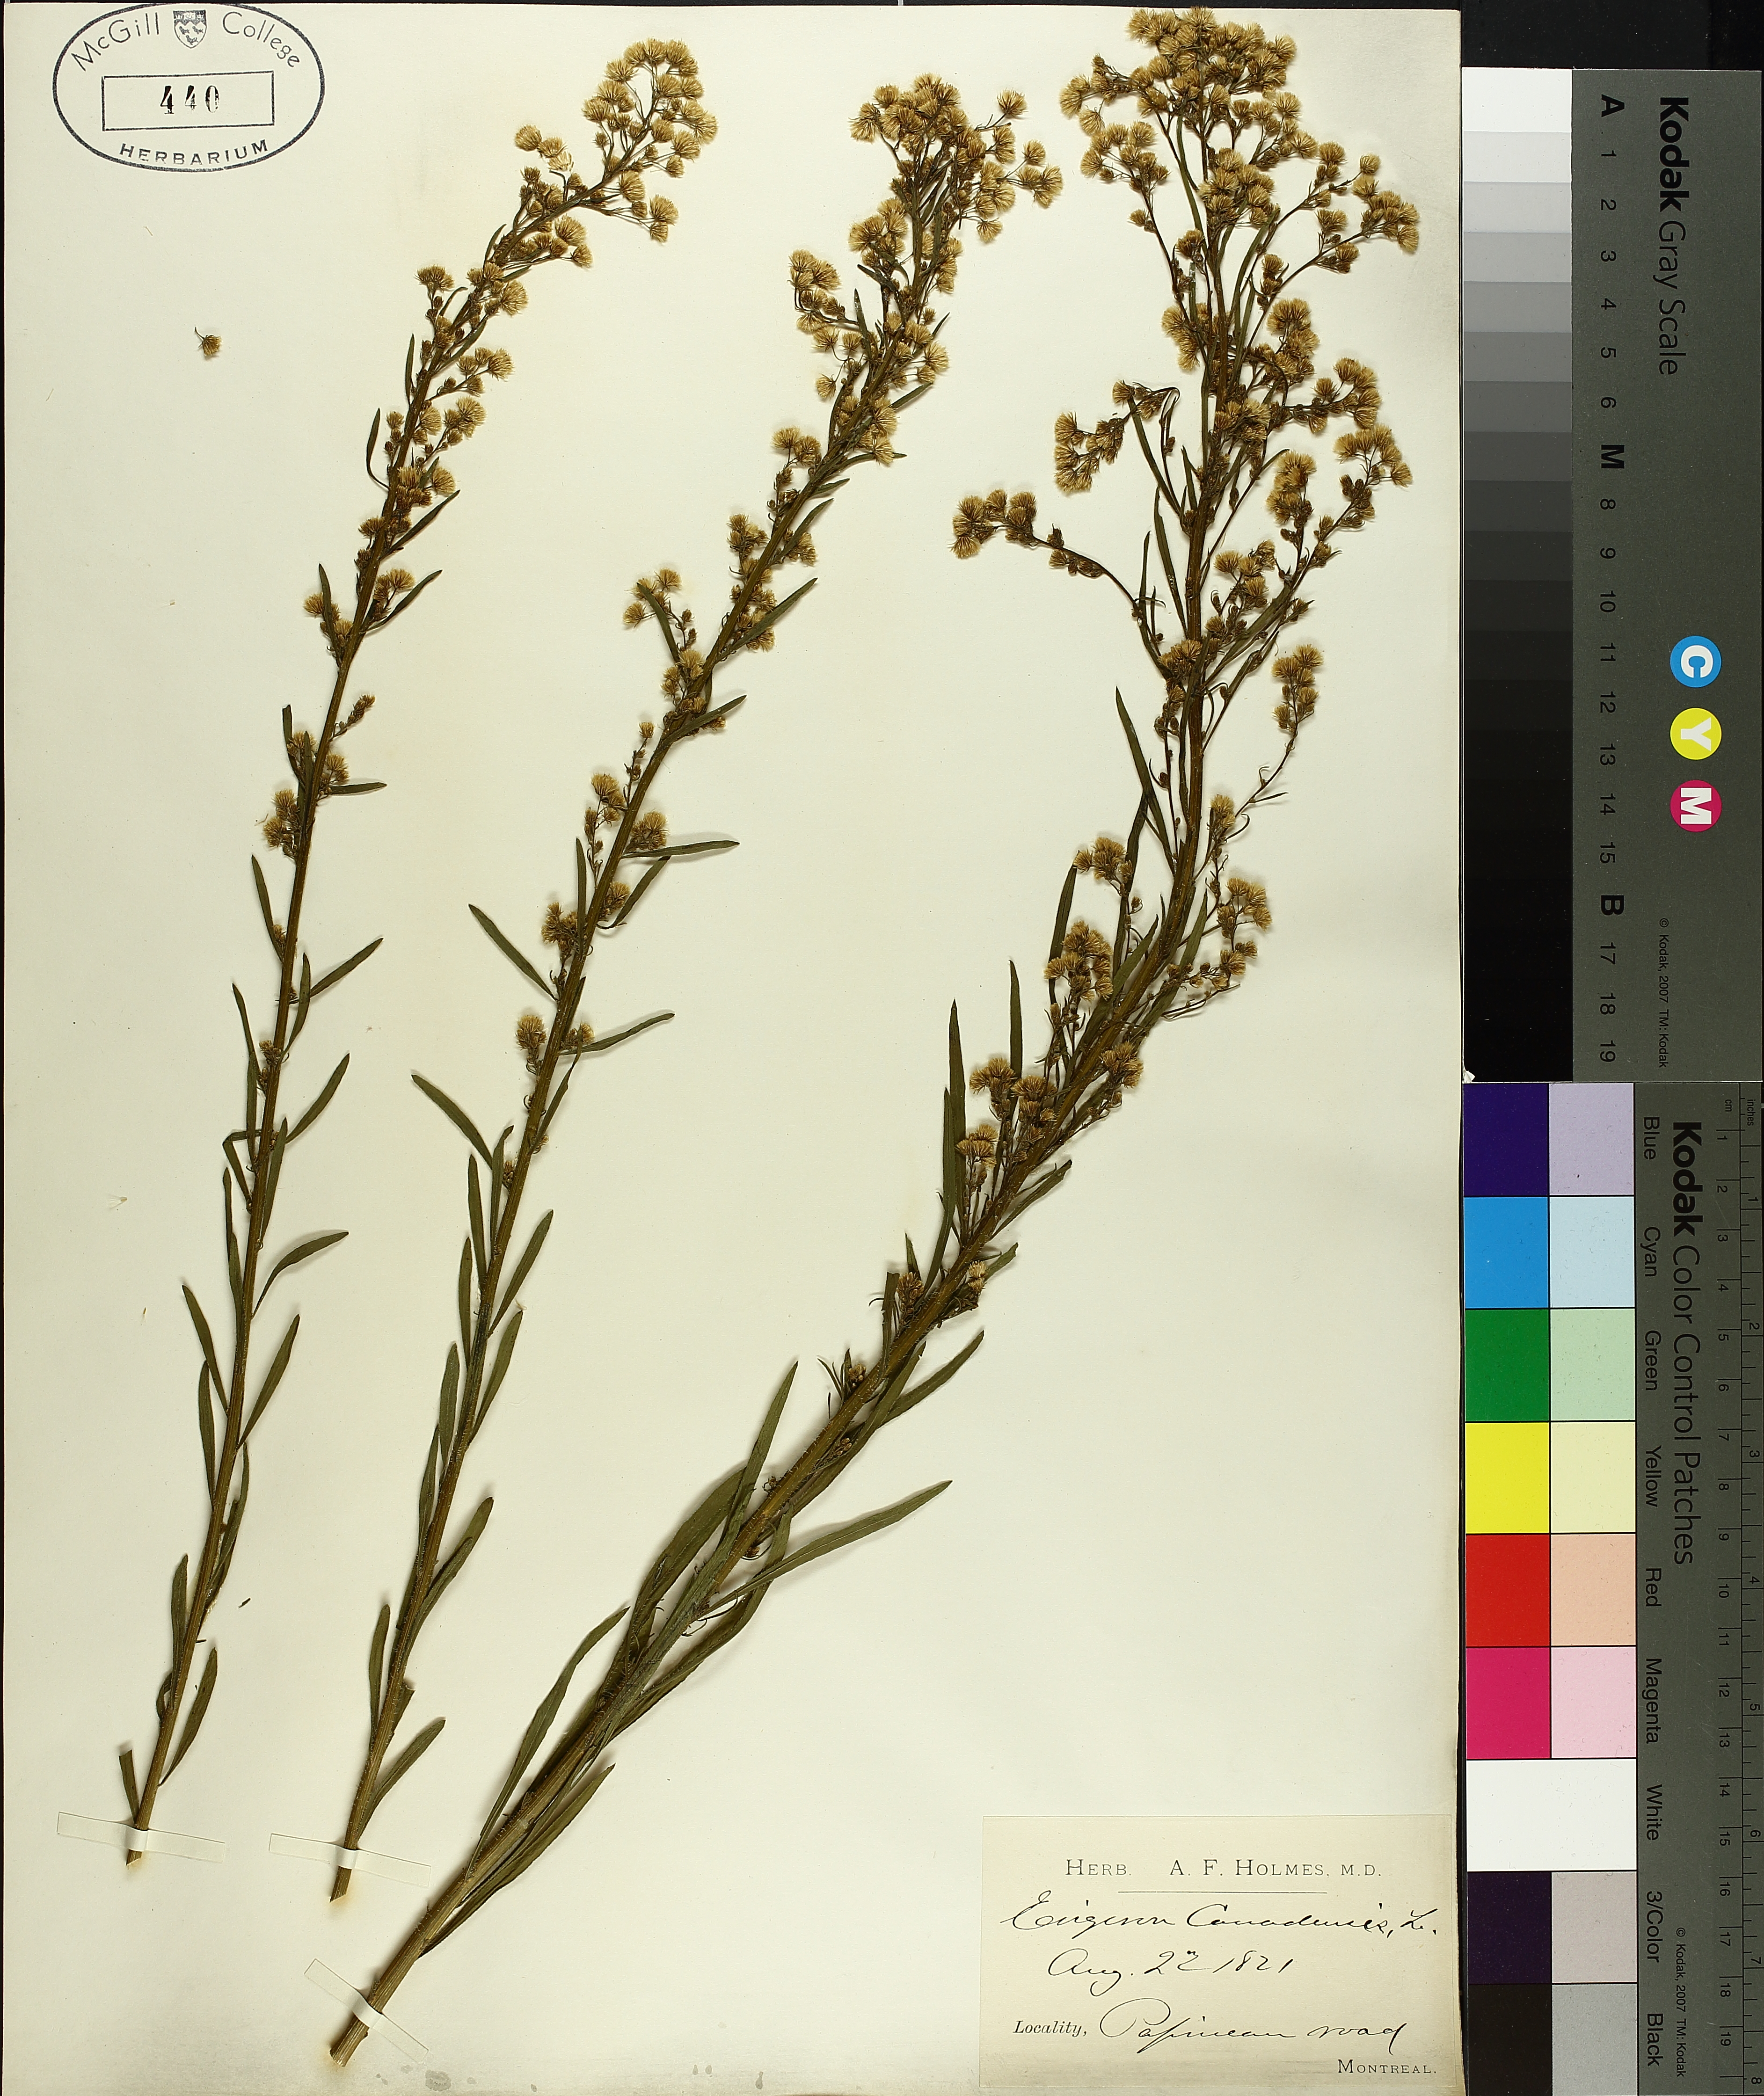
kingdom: Plantae
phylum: Tracheophyta
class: Magnoliopsida
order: Asterales
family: Asteraceae
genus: Erigeron
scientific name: Erigeron canadensis
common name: Canadian fleabane
